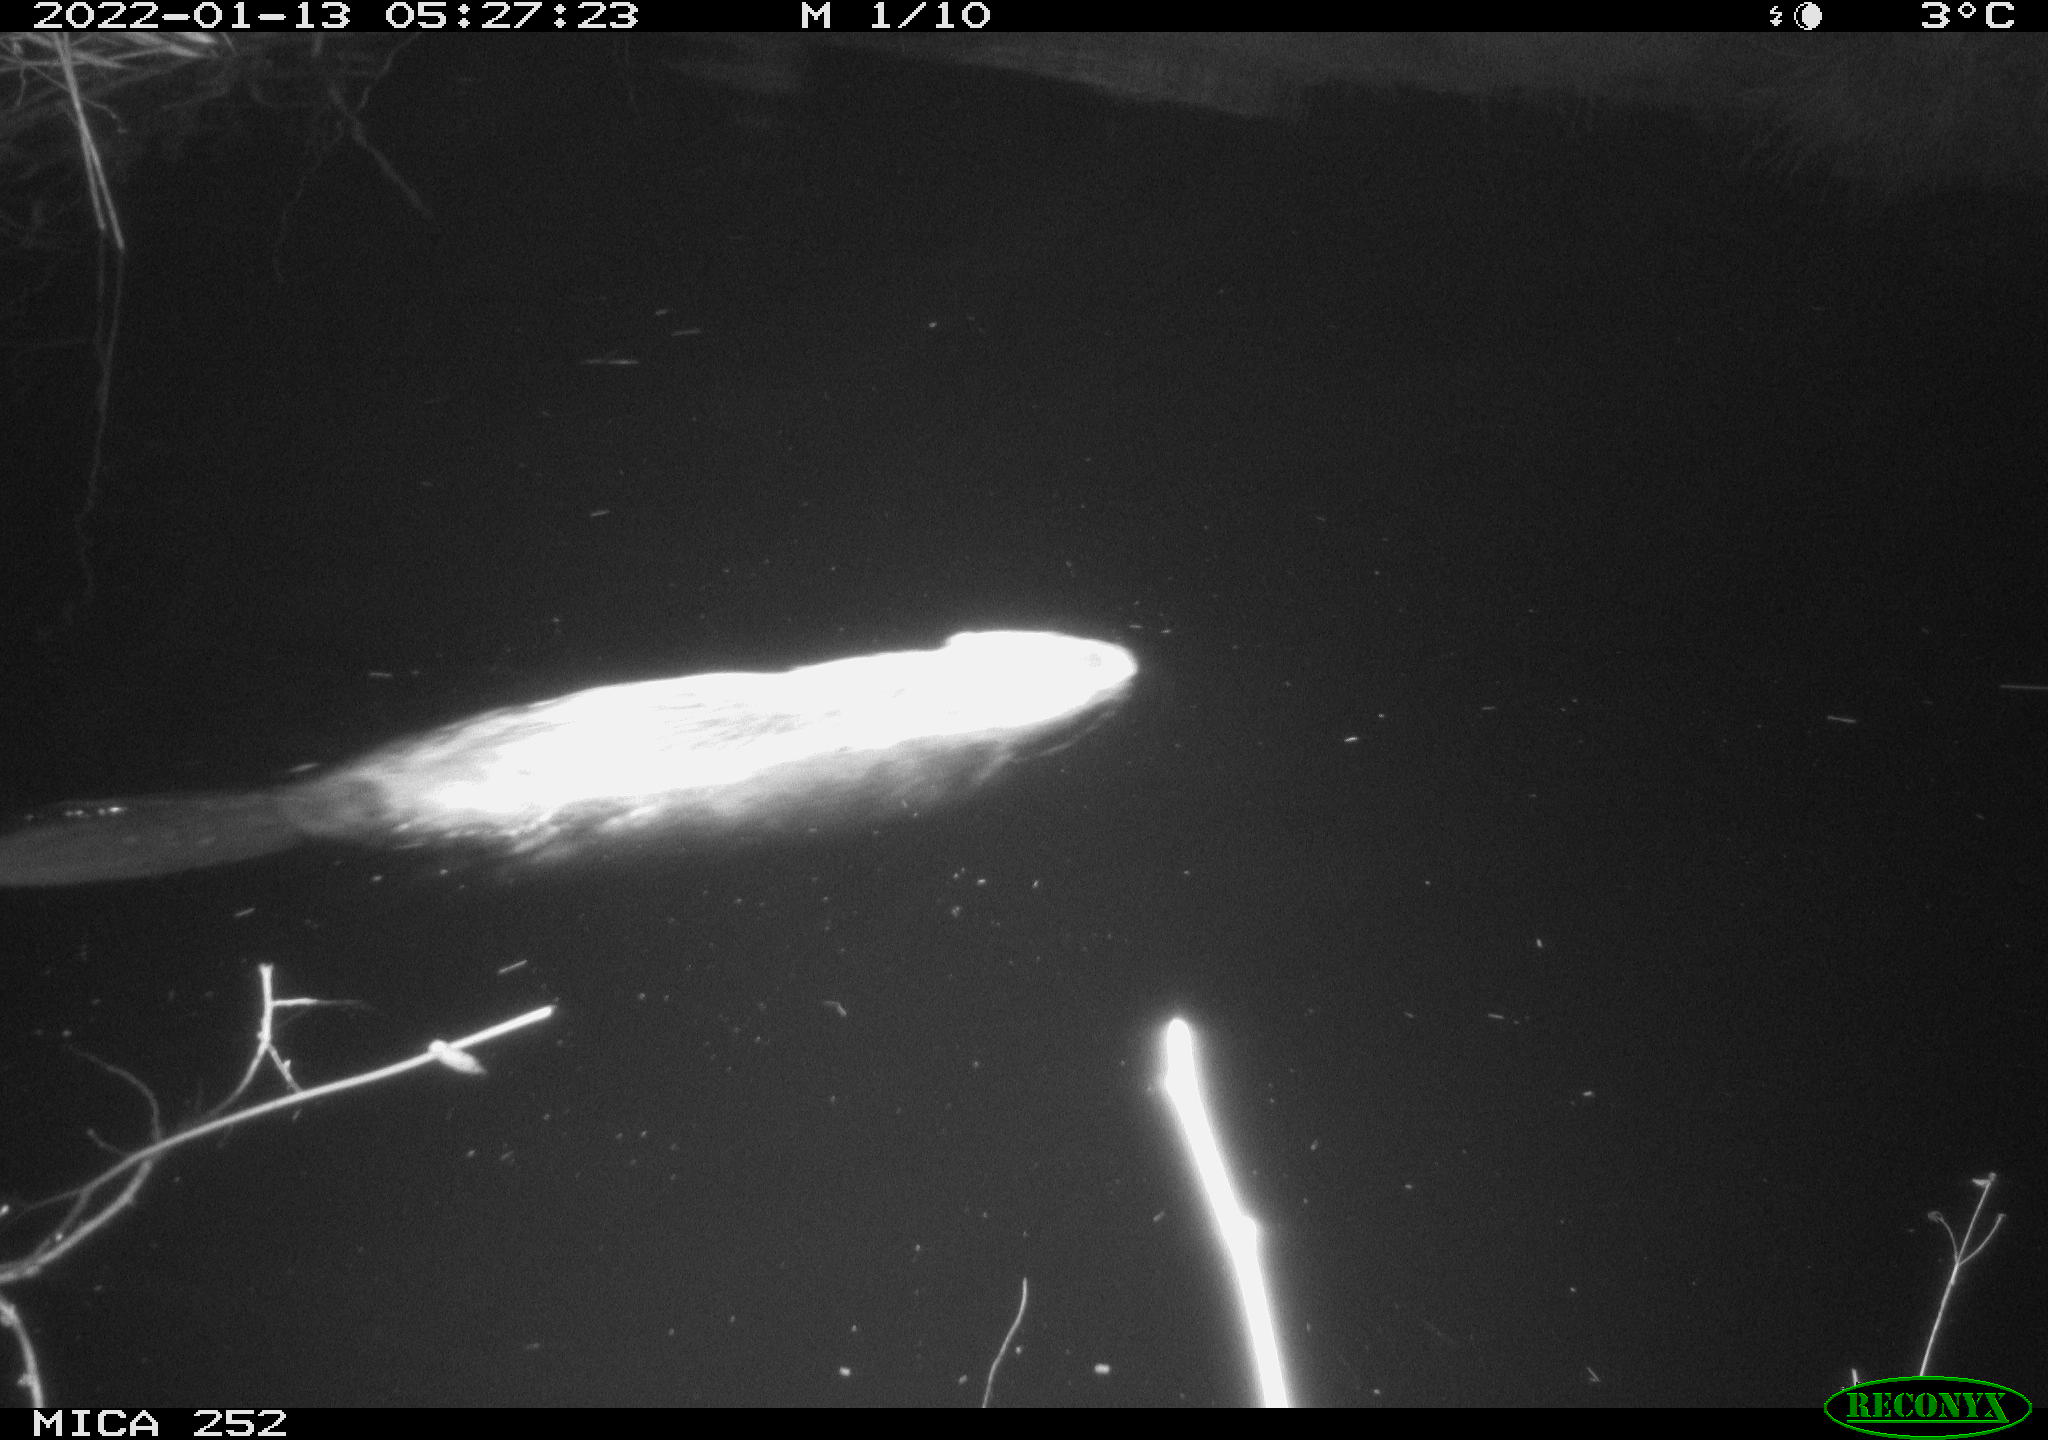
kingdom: Animalia
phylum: Chordata
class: Mammalia
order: Rodentia
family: Castoridae
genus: Castor
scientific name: Castor fiber
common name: Eurasian beaver
